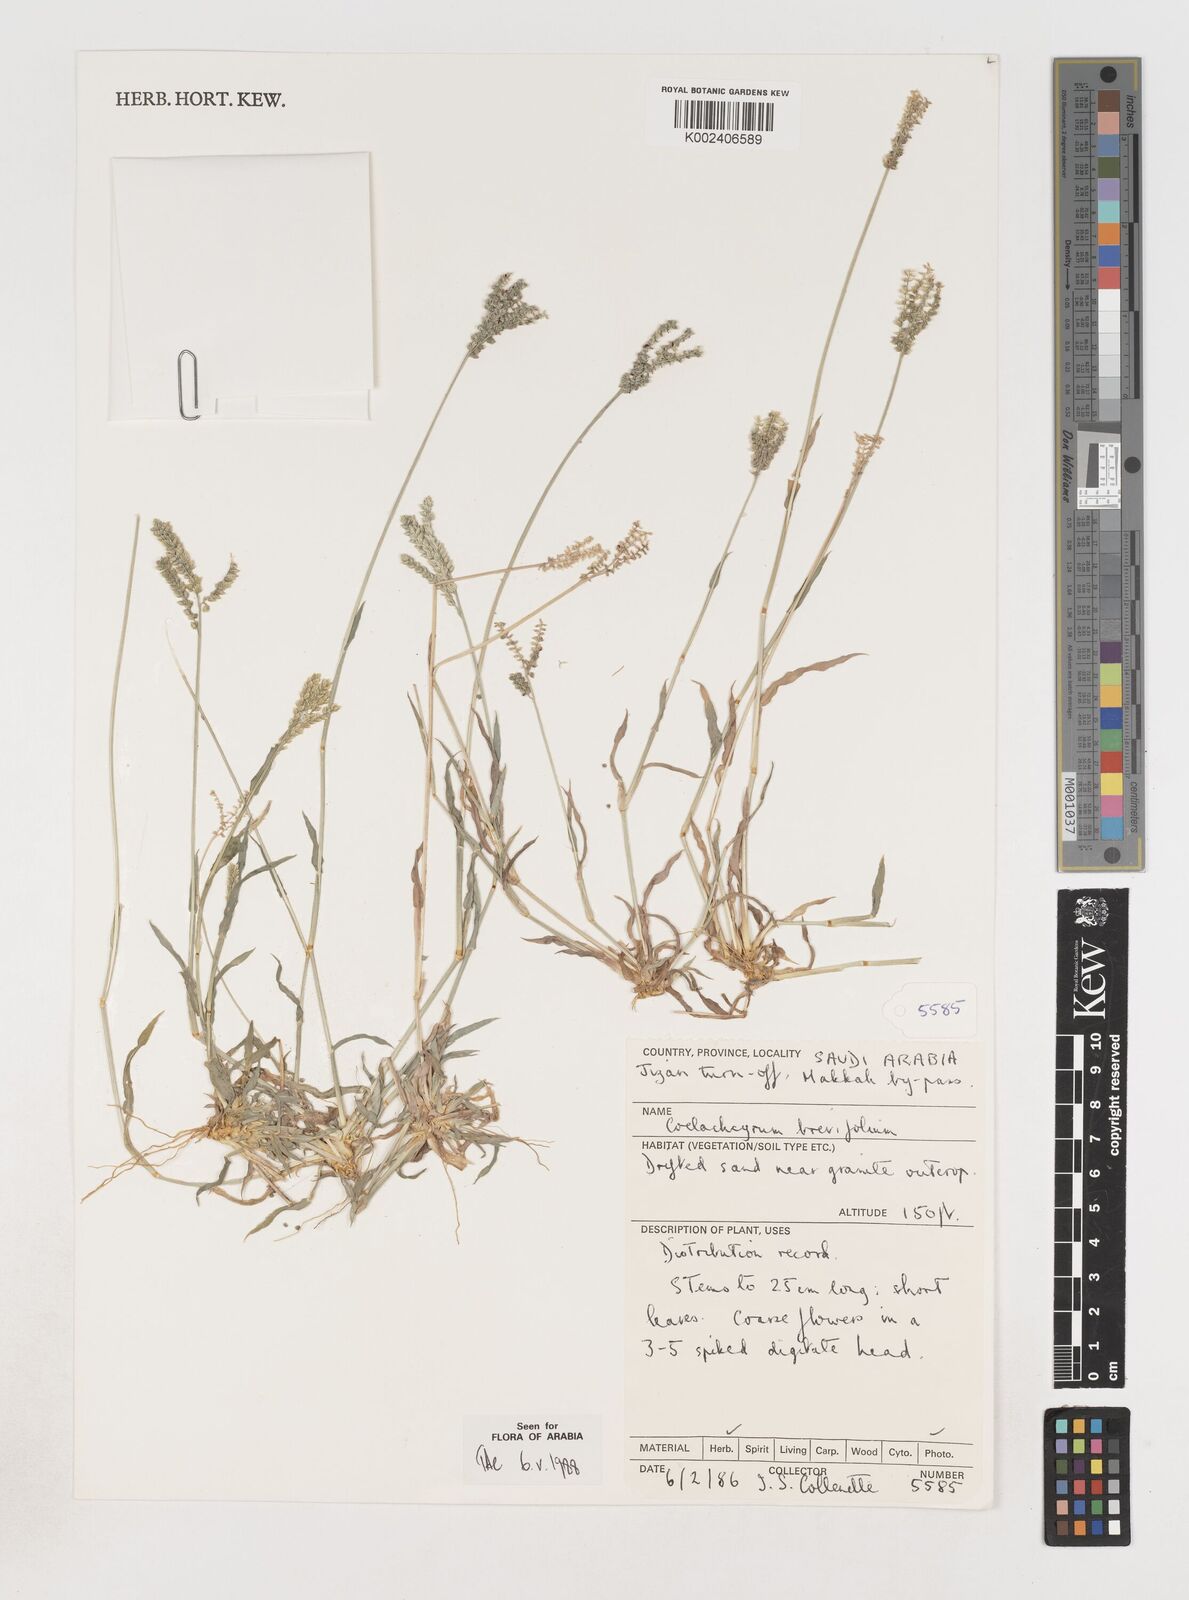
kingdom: Plantae
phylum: Tracheophyta
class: Liliopsida
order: Poales
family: Poaceae
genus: Coelachyrum
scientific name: Coelachyrum brevifolium
